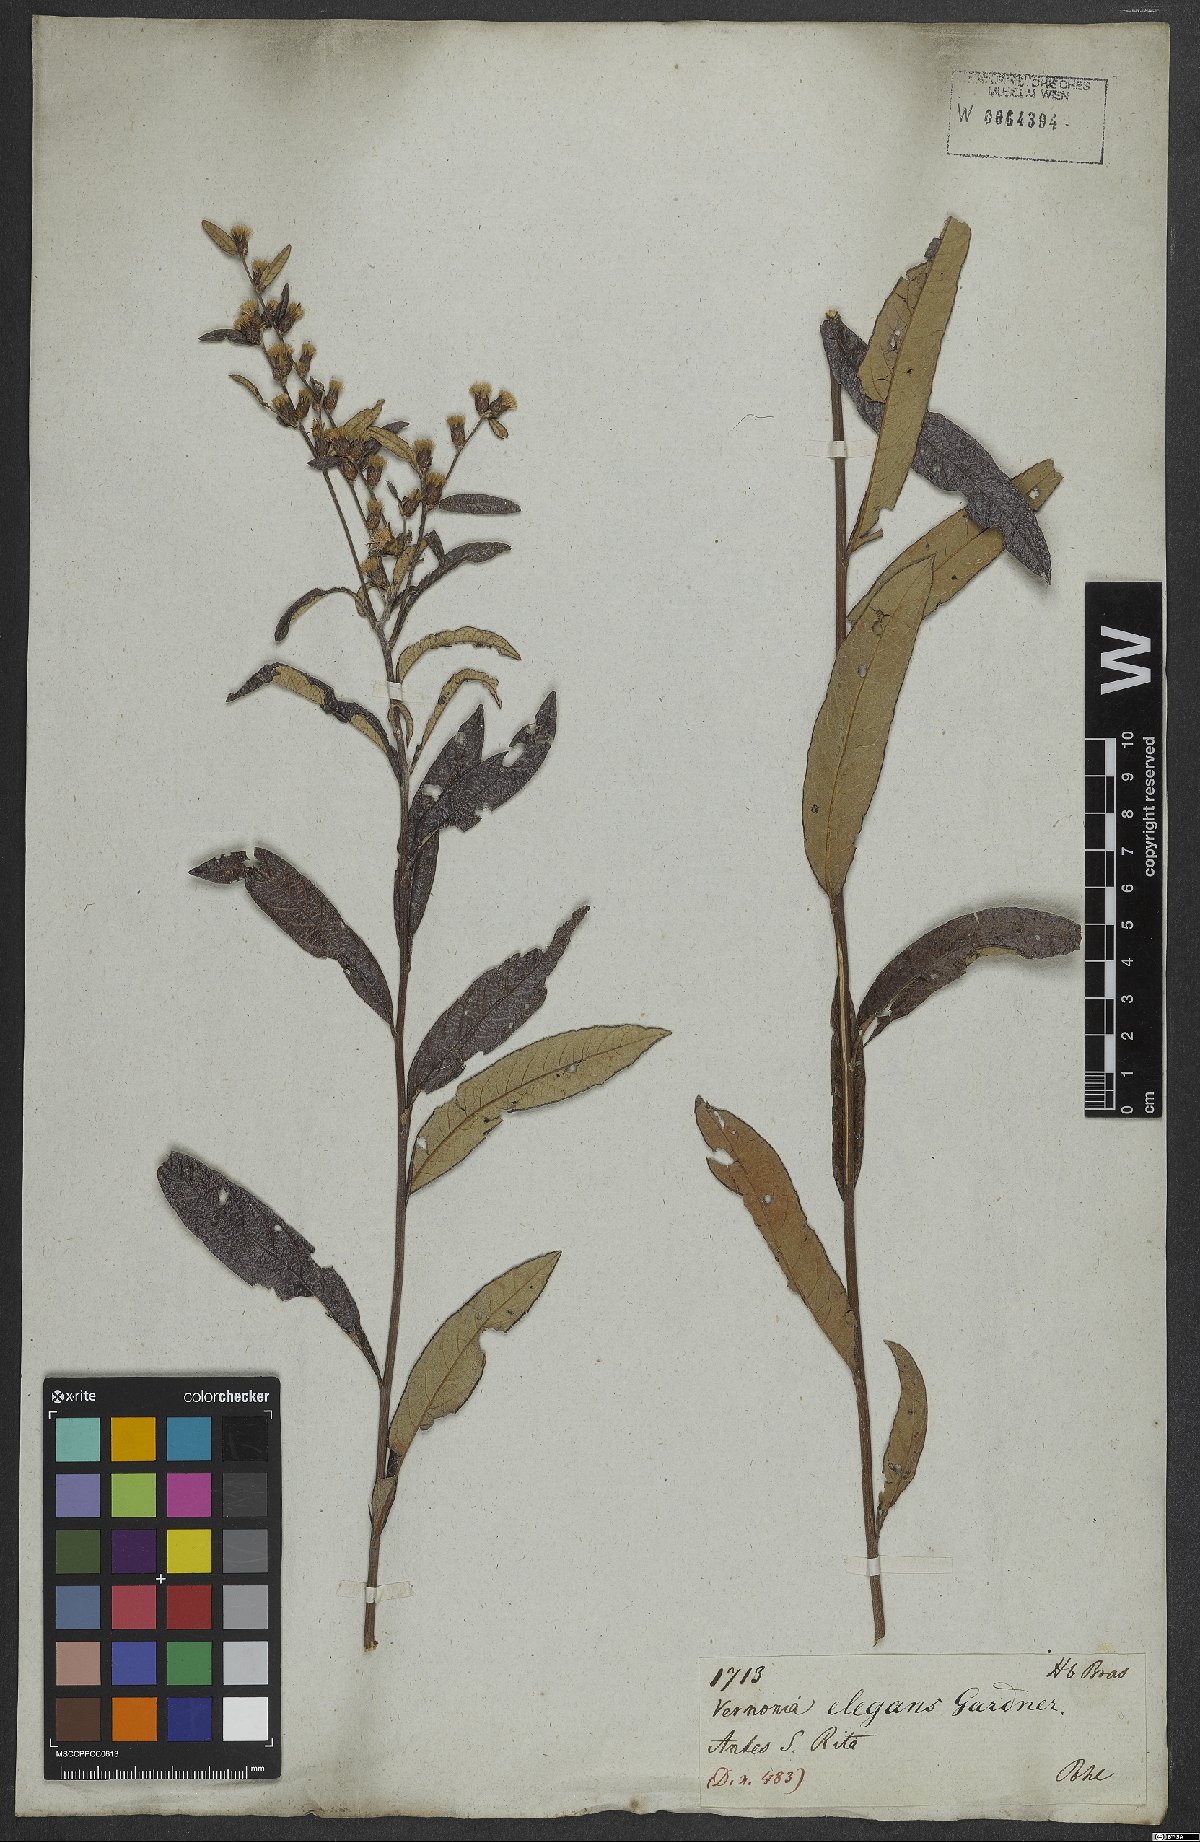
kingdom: Plantae
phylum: Tracheophyta
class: Magnoliopsida
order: Asterales
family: Asteraceae
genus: Lessingianthus
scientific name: Lessingianthus elegans
